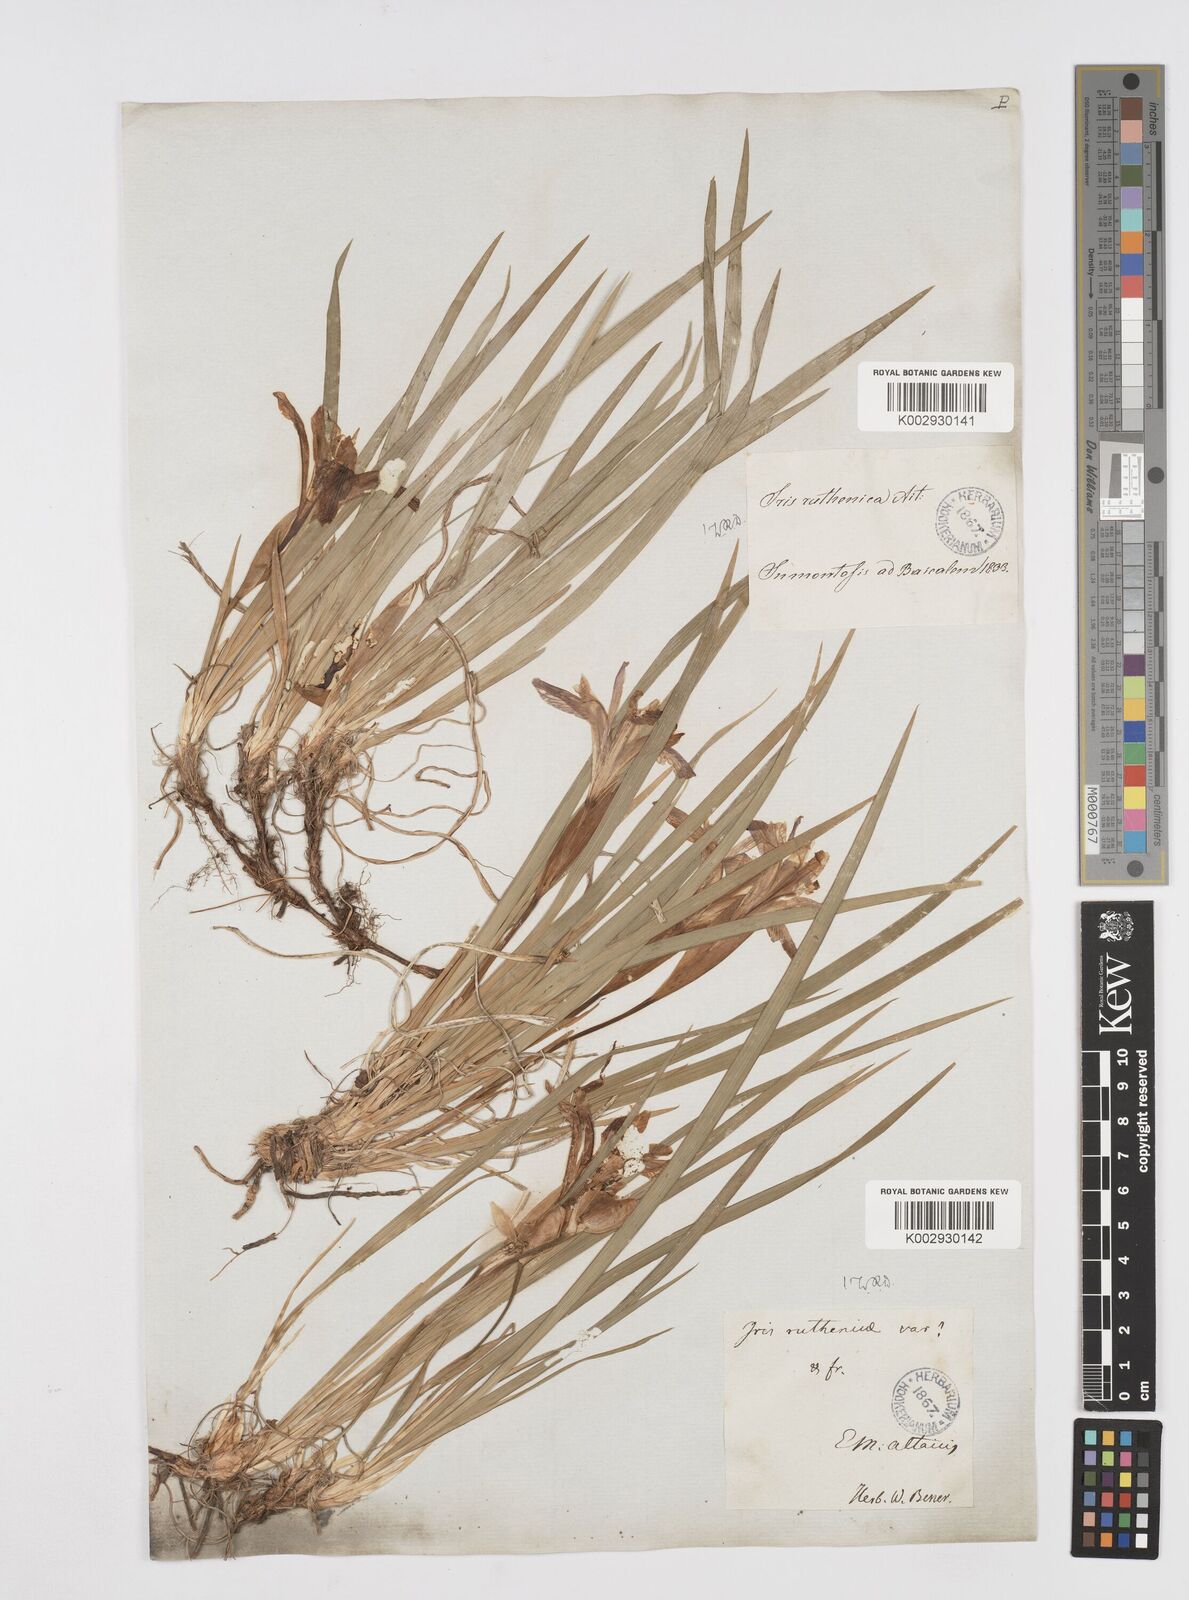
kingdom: Plantae
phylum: Tracheophyta
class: Liliopsida
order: Asparagales
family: Iridaceae
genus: Iris
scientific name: Iris ruthenica
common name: Purple-bract iris
